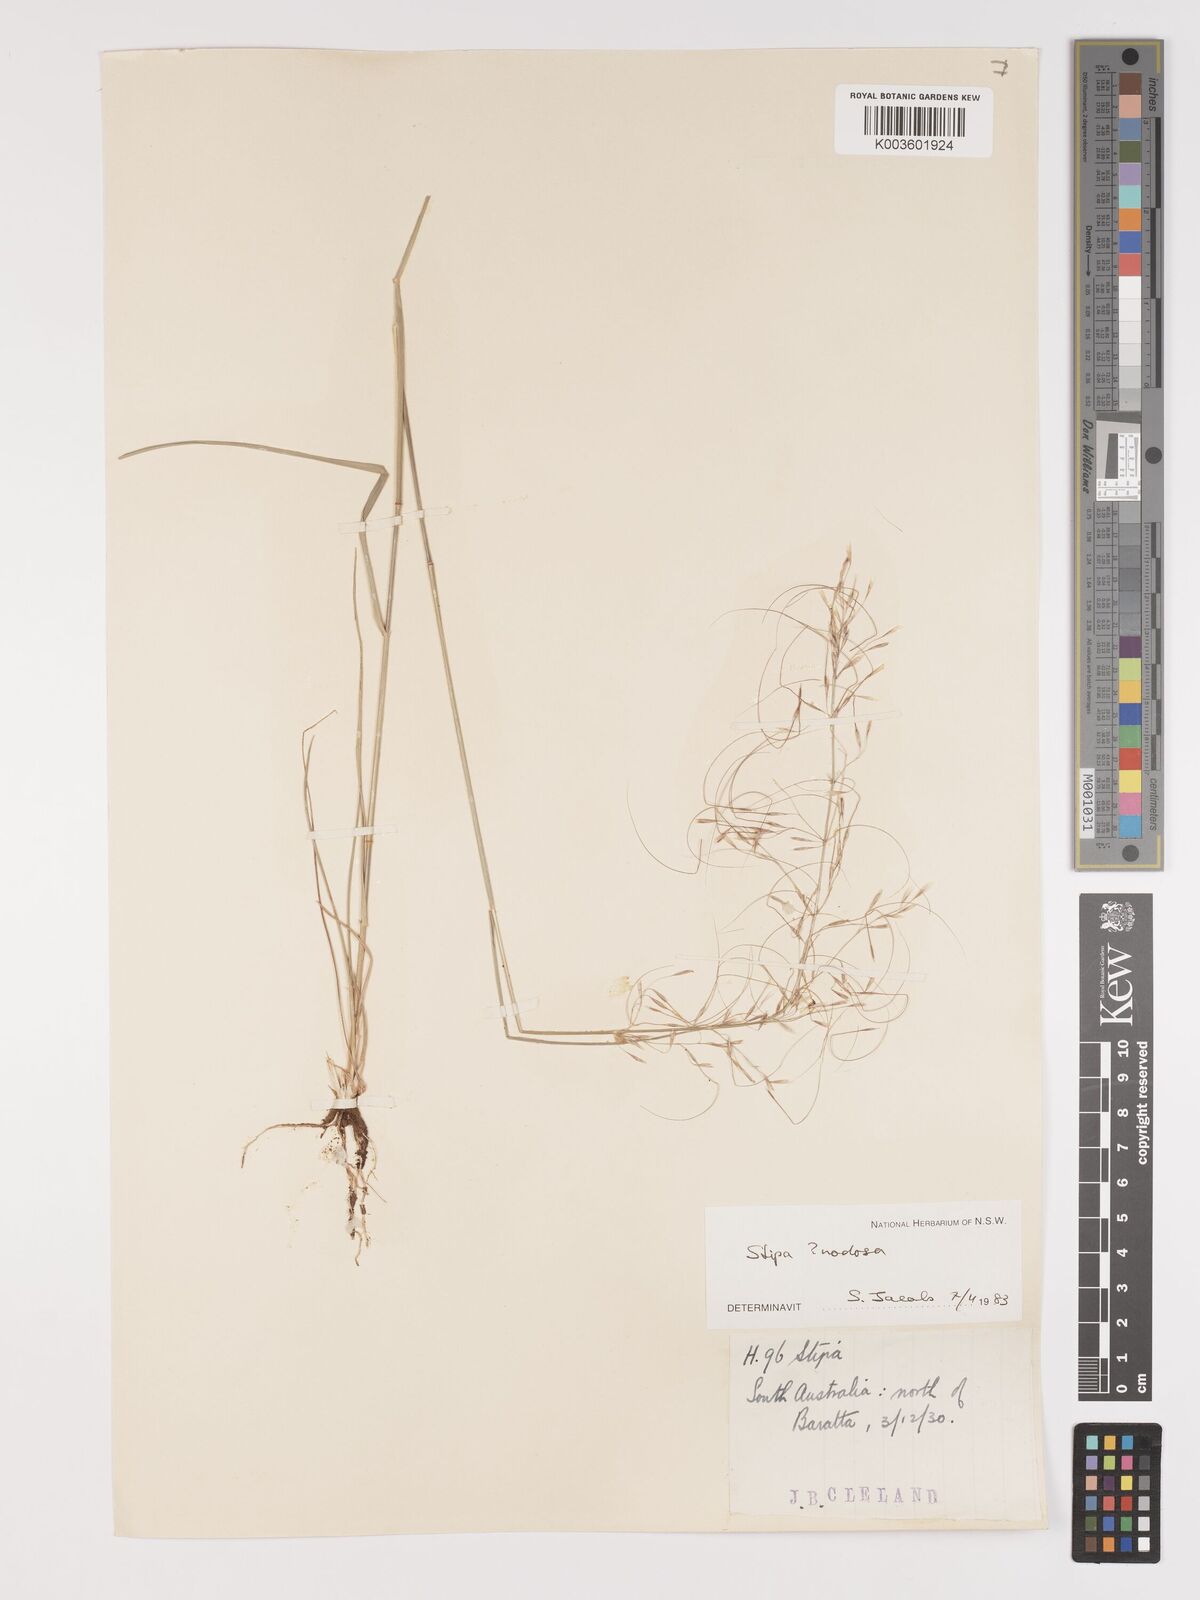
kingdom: Plantae
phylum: Tracheophyta
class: Liliopsida
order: Poales
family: Poaceae
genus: Austrostipa
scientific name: Austrostipa nodosa
